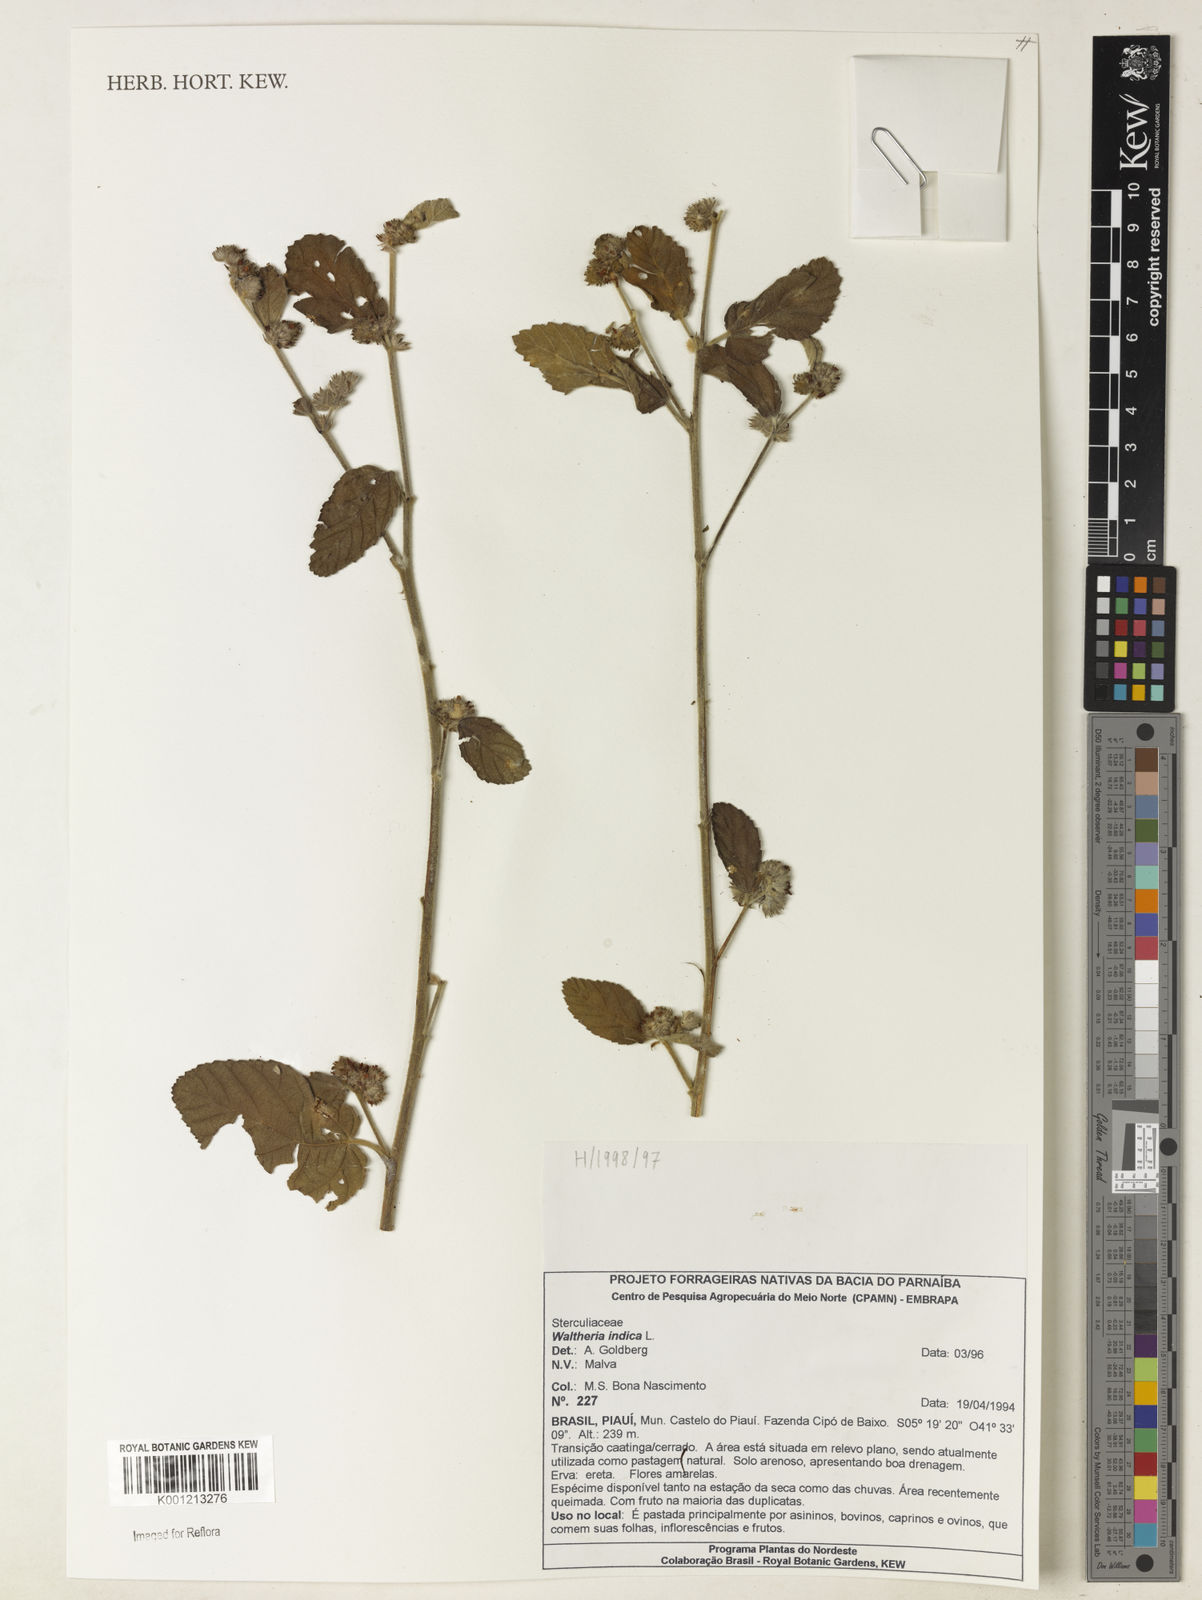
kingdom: Plantae
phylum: Tracheophyta
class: Magnoliopsida
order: Malvales
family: Malvaceae
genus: Waltheria
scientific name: Waltheria indica
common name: Leather-coat
